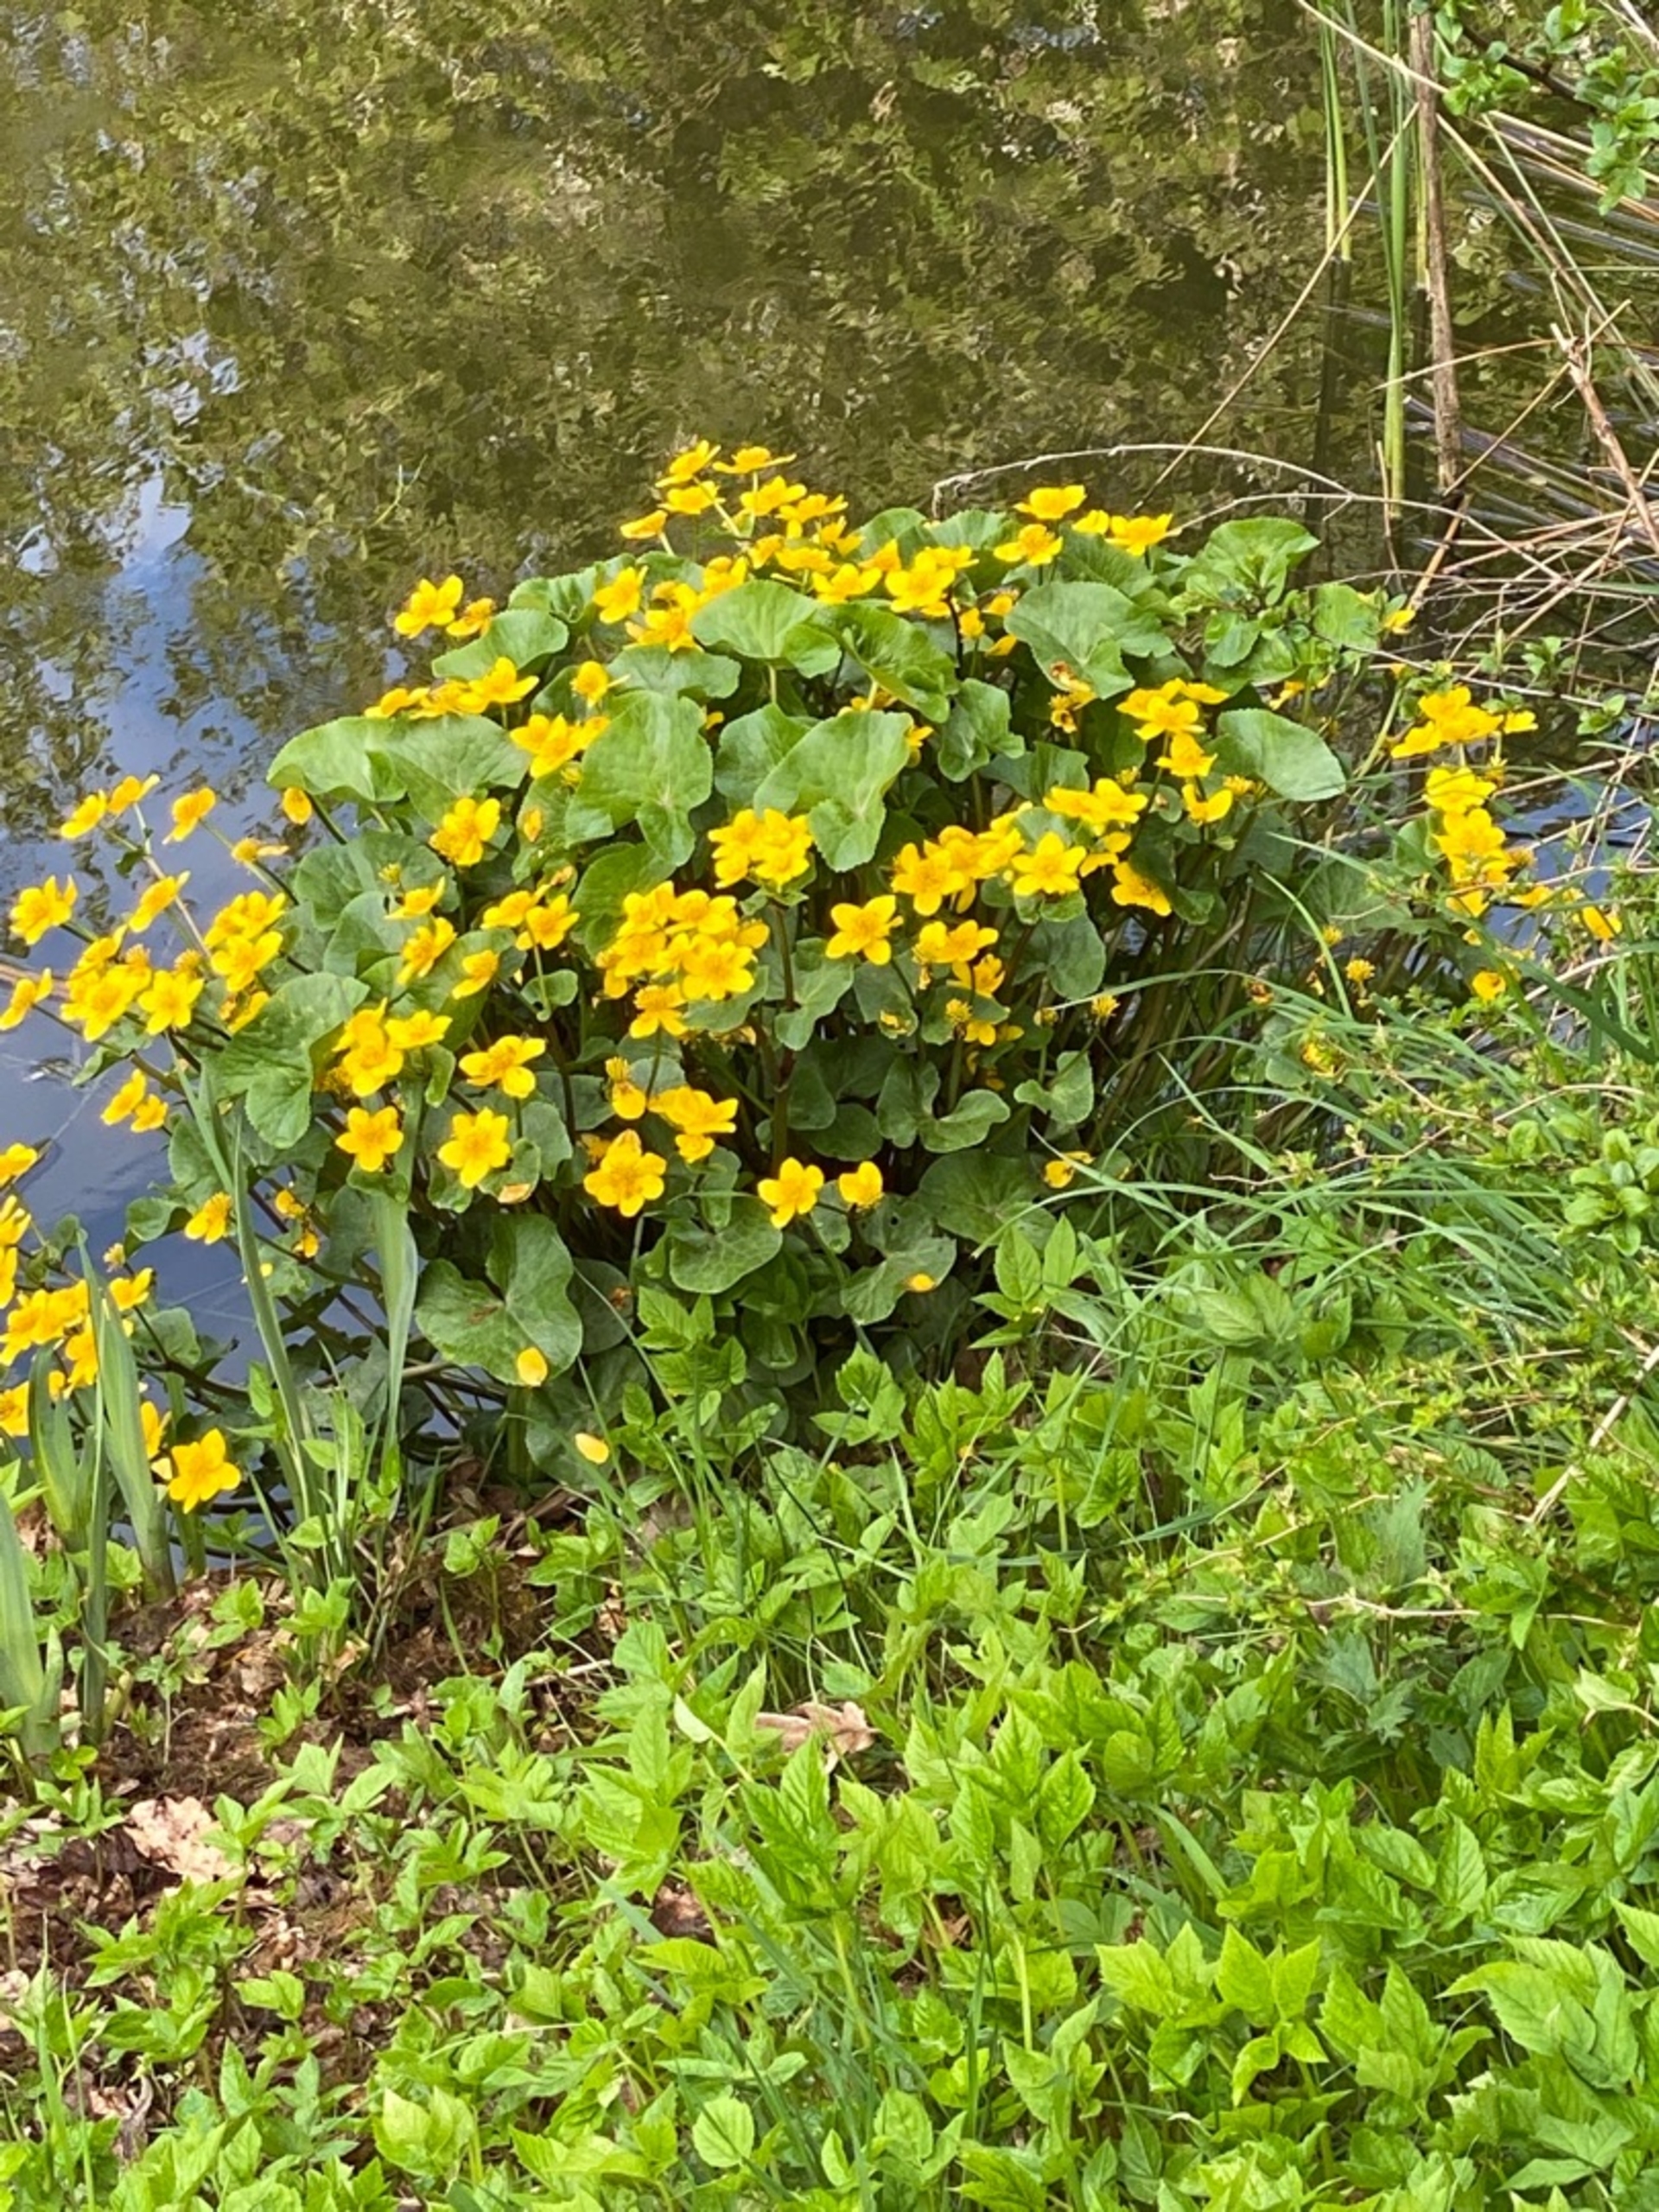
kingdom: Plantae
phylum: Tracheophyta
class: Magnoliopsida
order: Apiales
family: Apiaceae
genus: Heracleum
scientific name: Heracleum mantegazzianum
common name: Kæmpe-bjørneklo
